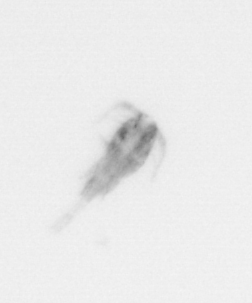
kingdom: Animalia
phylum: Arthropoda
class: Copepoda
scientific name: Copepoda
